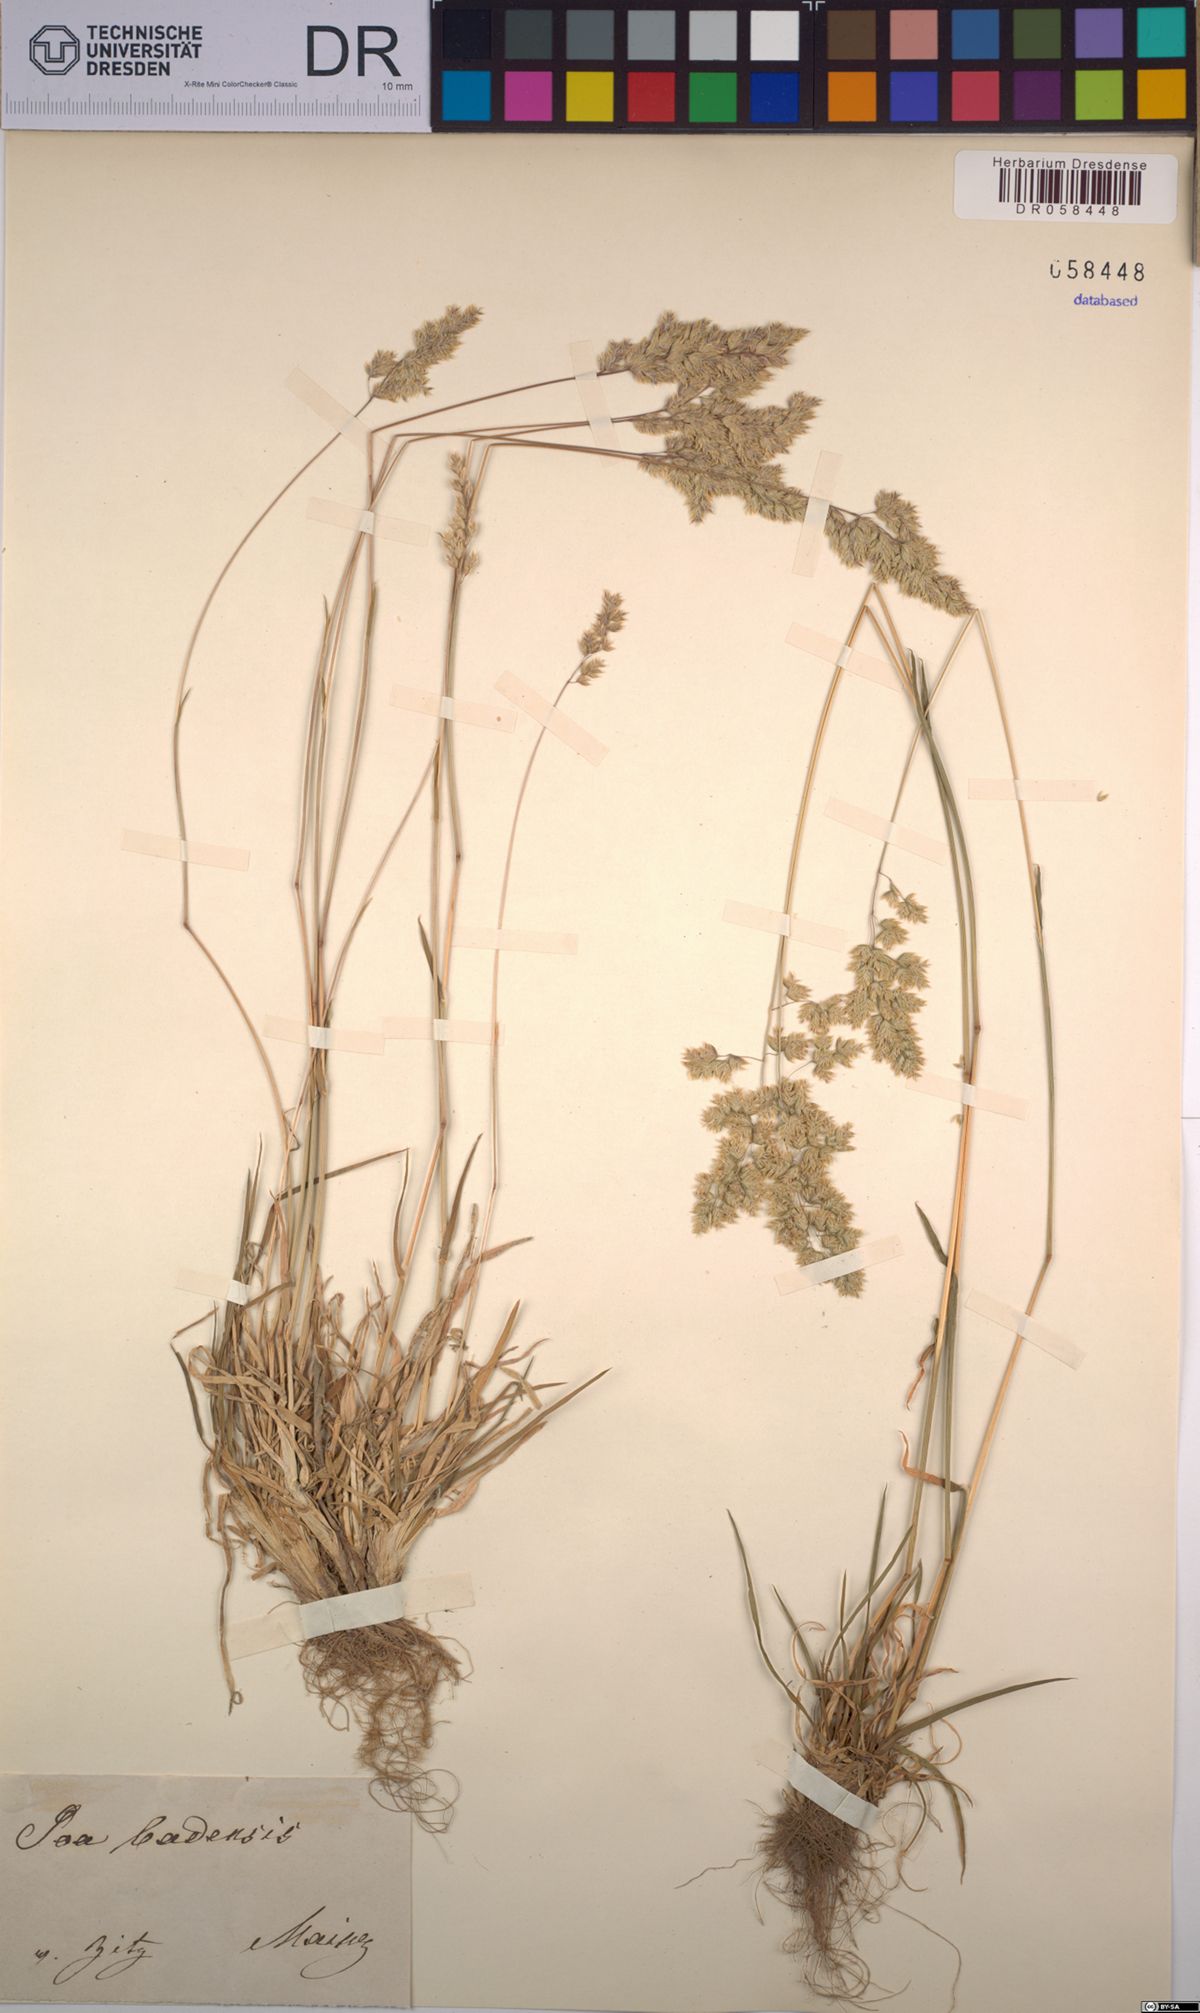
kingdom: Plantae
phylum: Tracheophyta
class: Liliopsida
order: Poales
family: Poaceae
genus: Poa
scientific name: Poa badensis
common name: Baden's bluegrass
